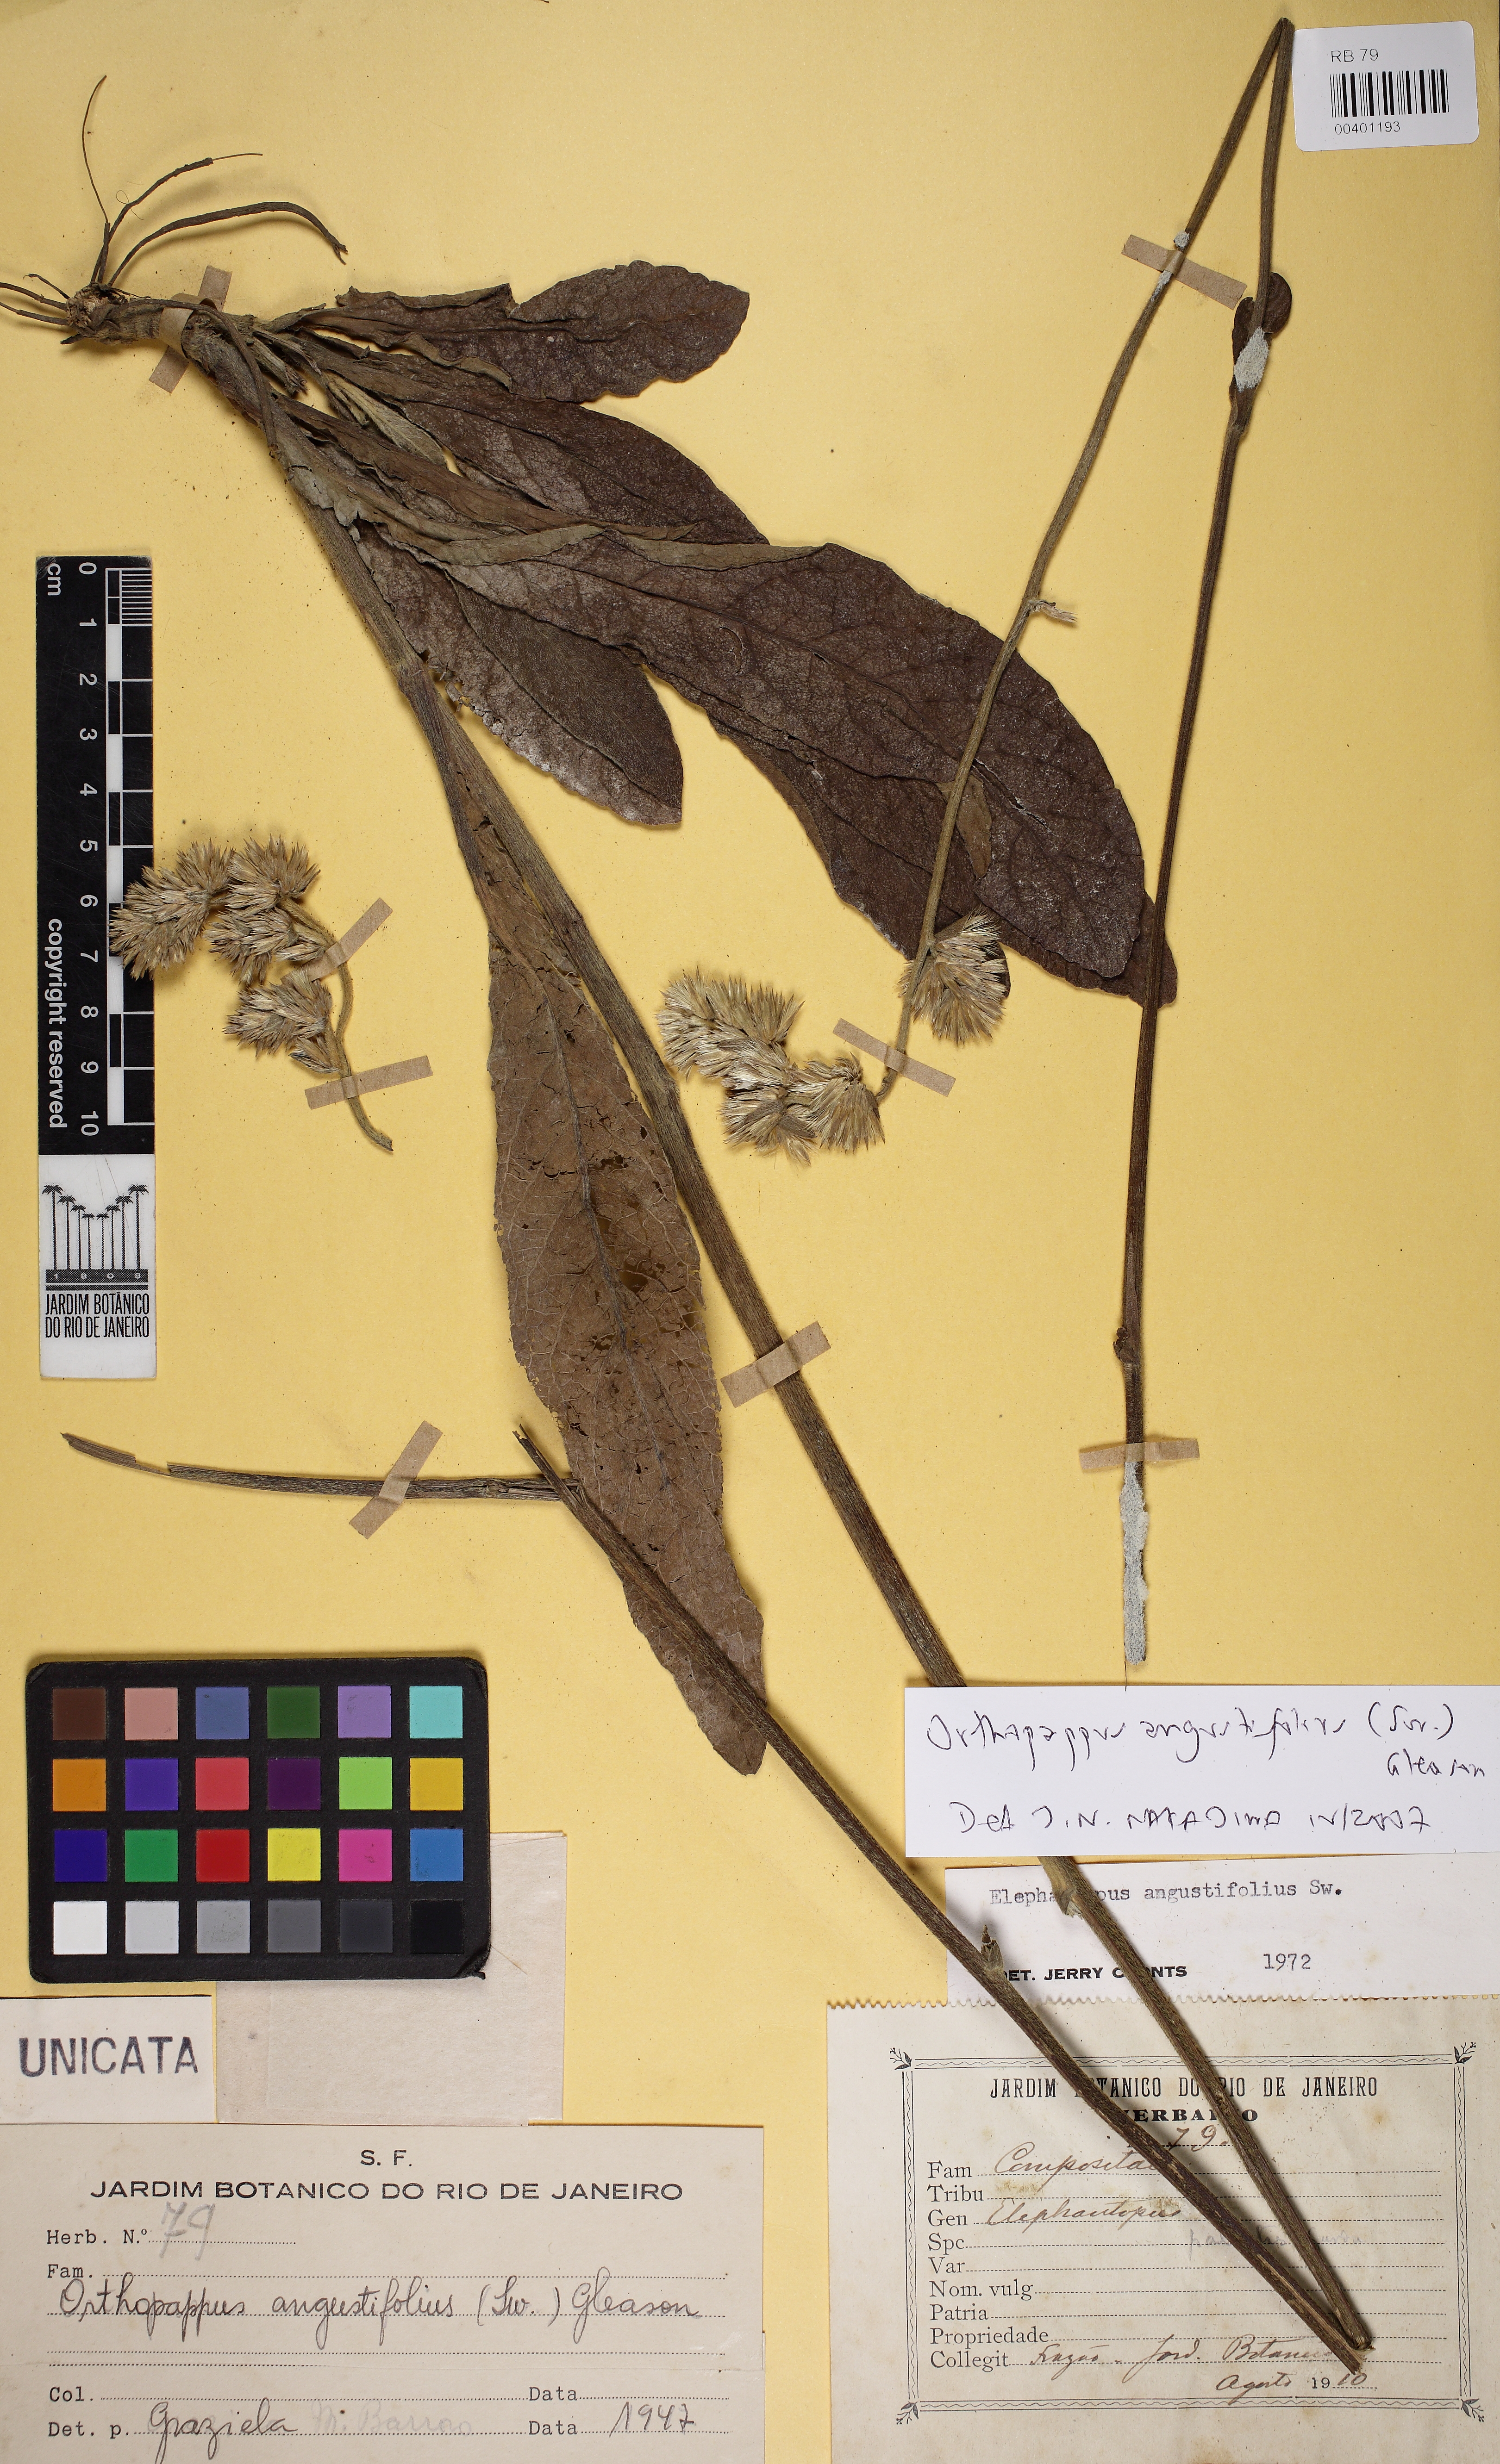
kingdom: Plantae
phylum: Tracheophyta
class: Magnoliopsida
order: Asterales
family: Asteraceae
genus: Orthopappus
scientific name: Orthopappus angustifolius
